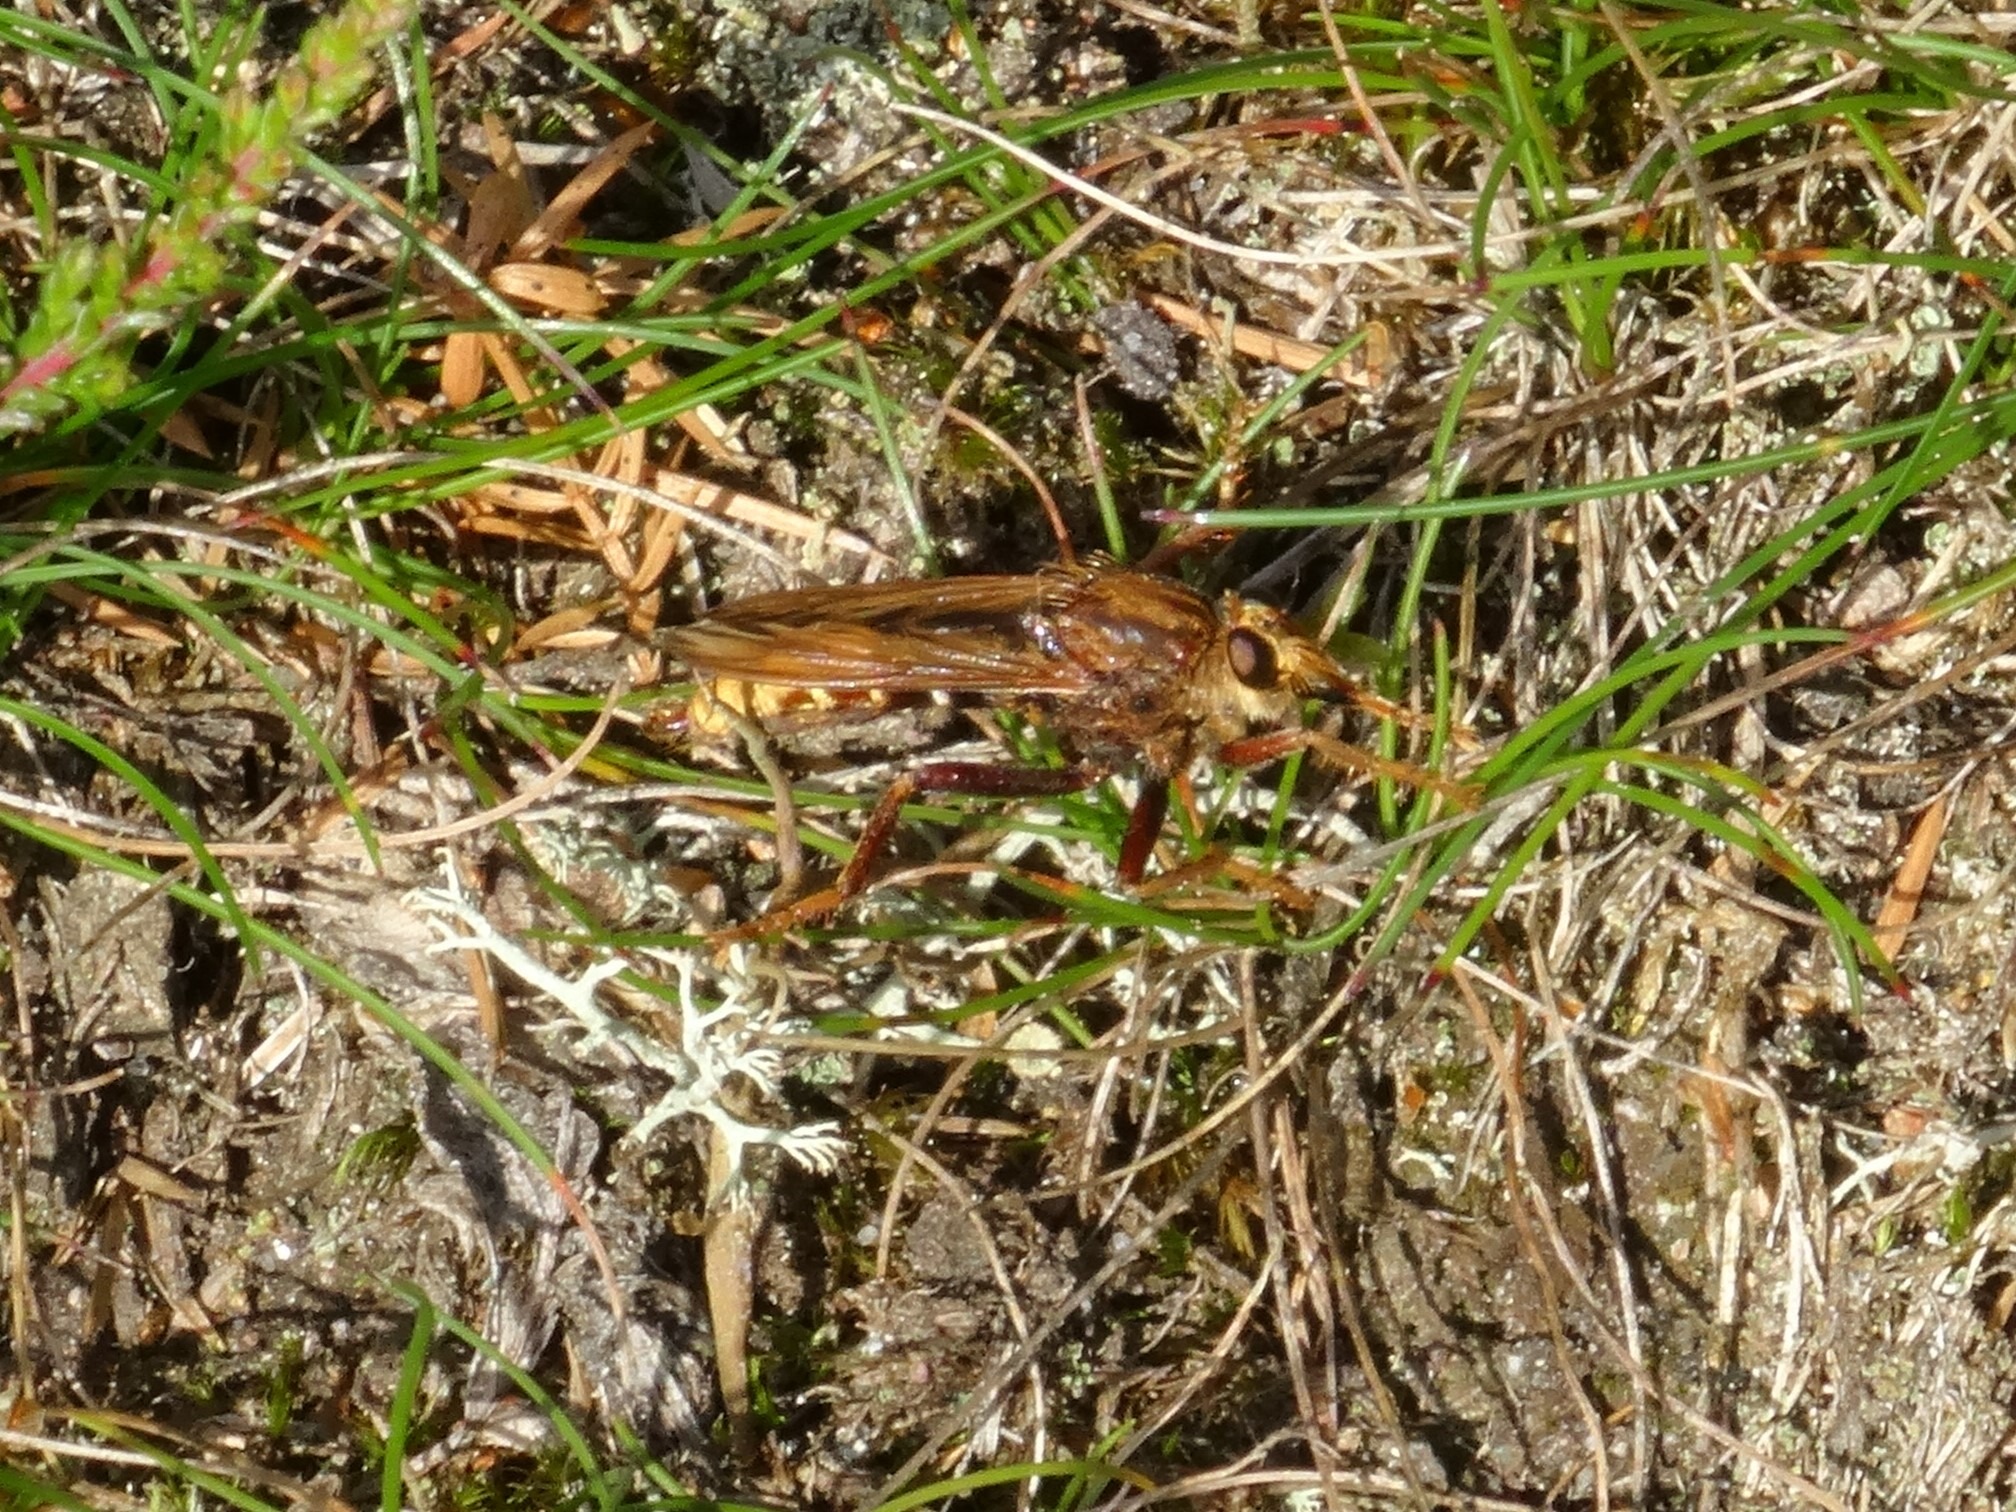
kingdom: Animalia
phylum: Arthropoda
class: Insecta
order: Diptera
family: Asilidae
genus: Asilus
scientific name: Asilus crabroniformis
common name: Stor gødningsrovflue
